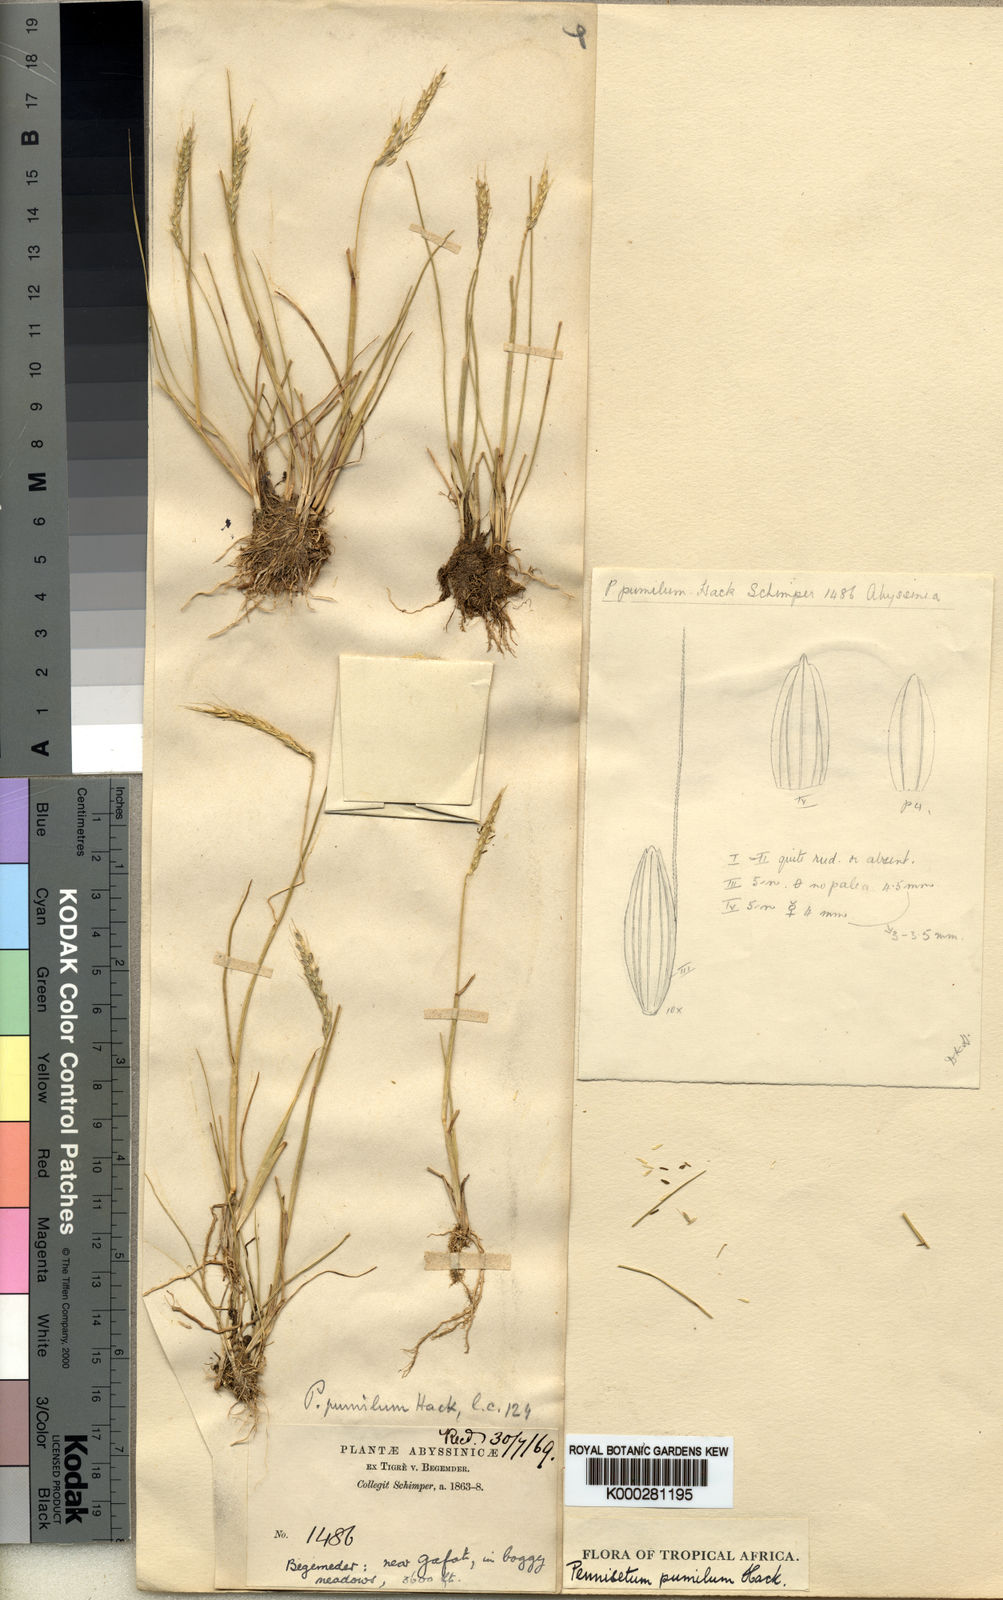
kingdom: Plantae
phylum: Tracheophyta
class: Liliopsida
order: Poales
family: Poaceae
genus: Cenchrus
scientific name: Cenchrus Pennisetum spec
